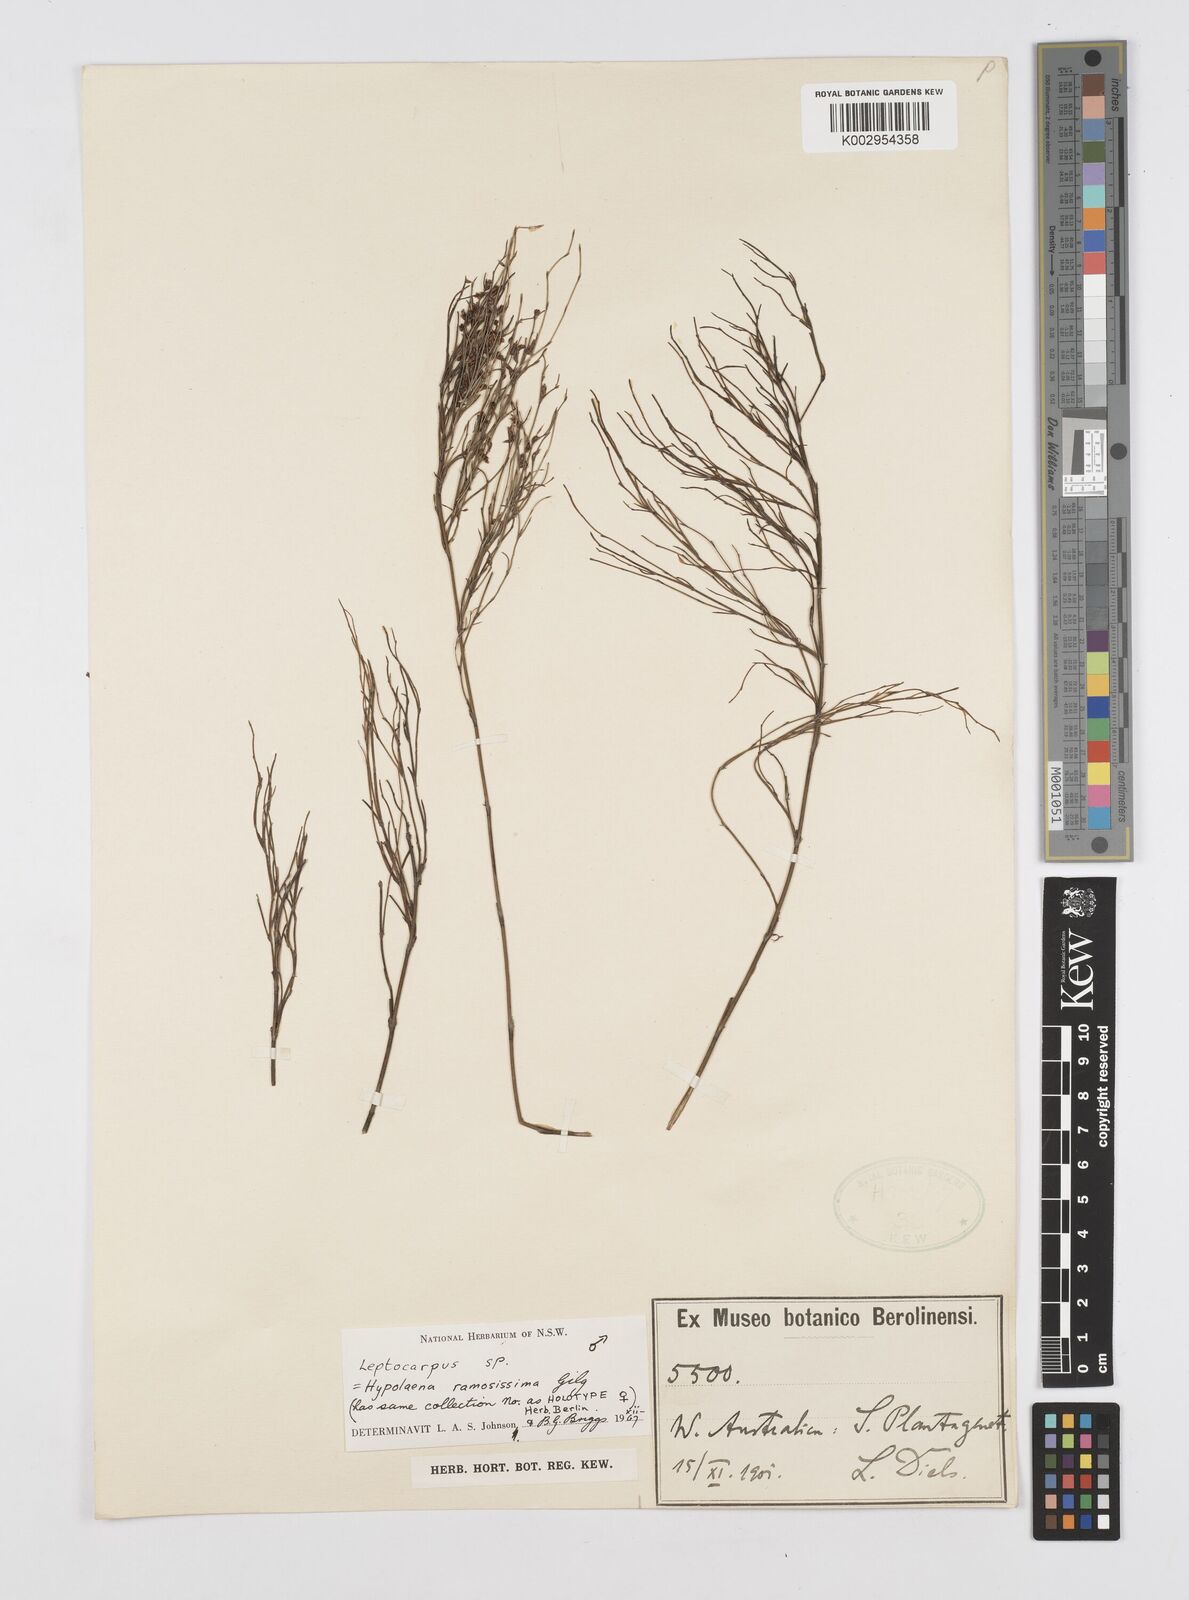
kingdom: Plantae
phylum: Tracheophyta
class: Liliopsida
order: Poales
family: Restionaceae
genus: Leptocarpus
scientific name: Leptocarpus
